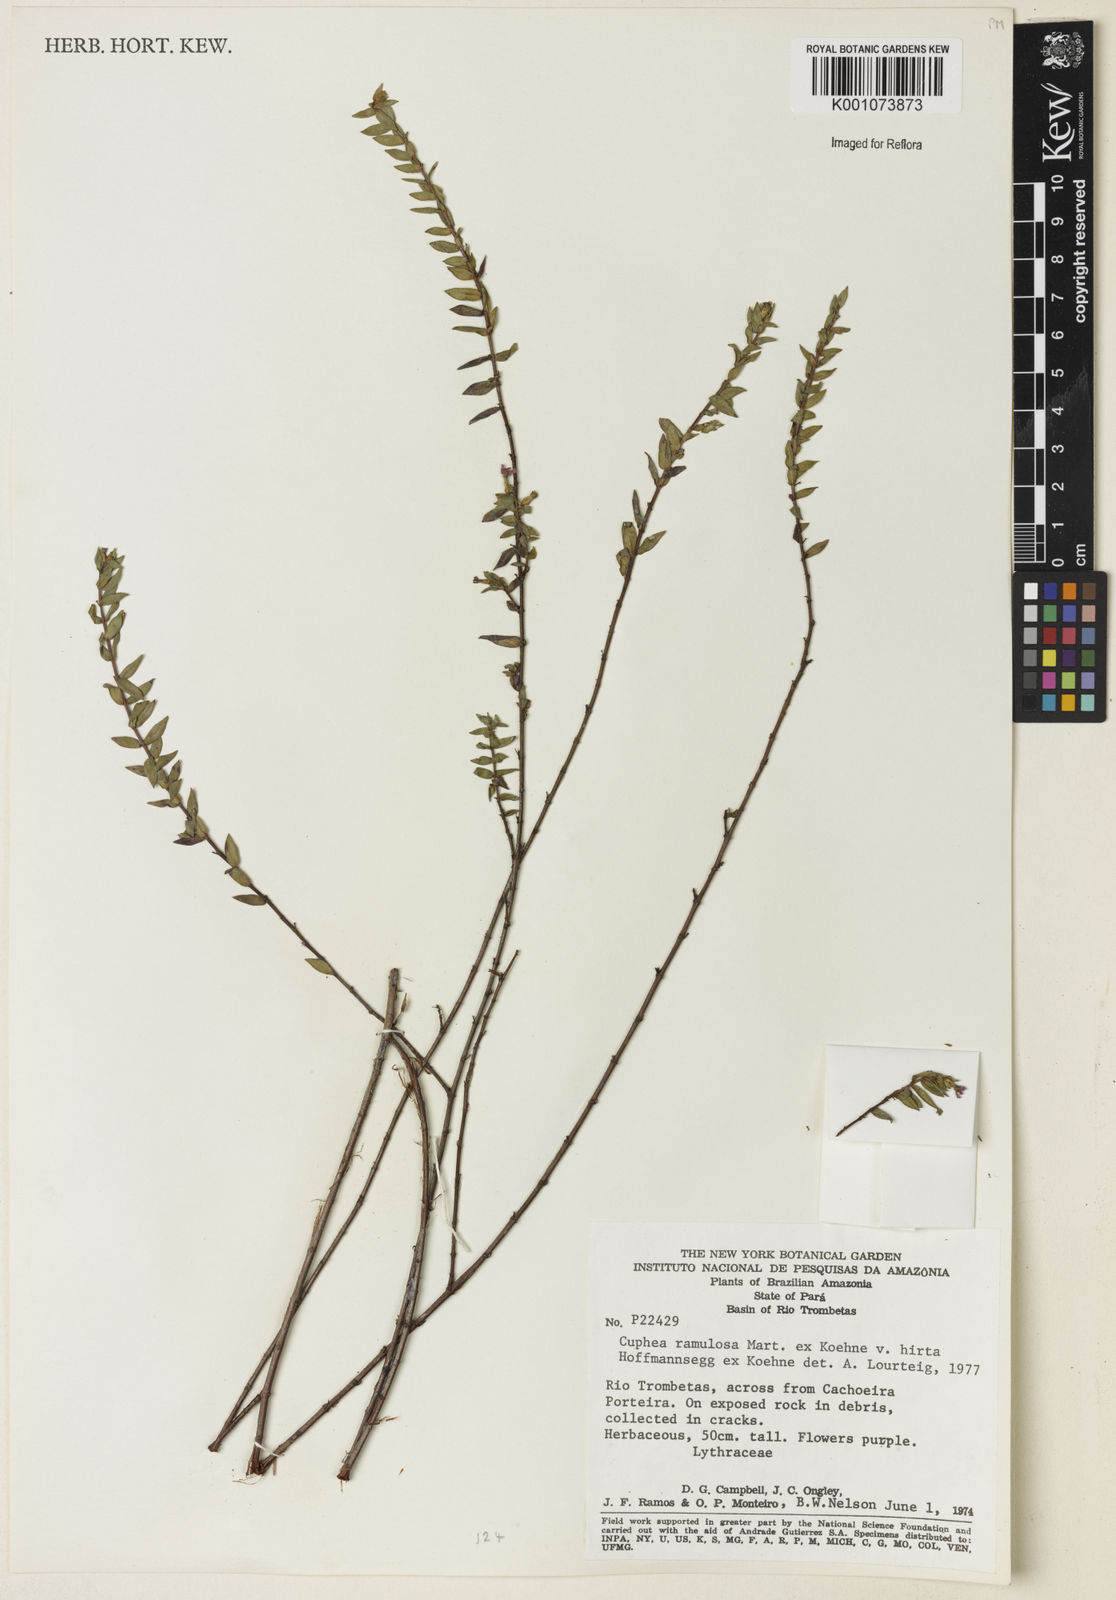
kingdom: Plantae
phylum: Tracheophyta
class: Magnoliopsida
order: Myrtales
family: Lythraceae
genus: Cuphea
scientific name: Cuphea antisyphilitica
